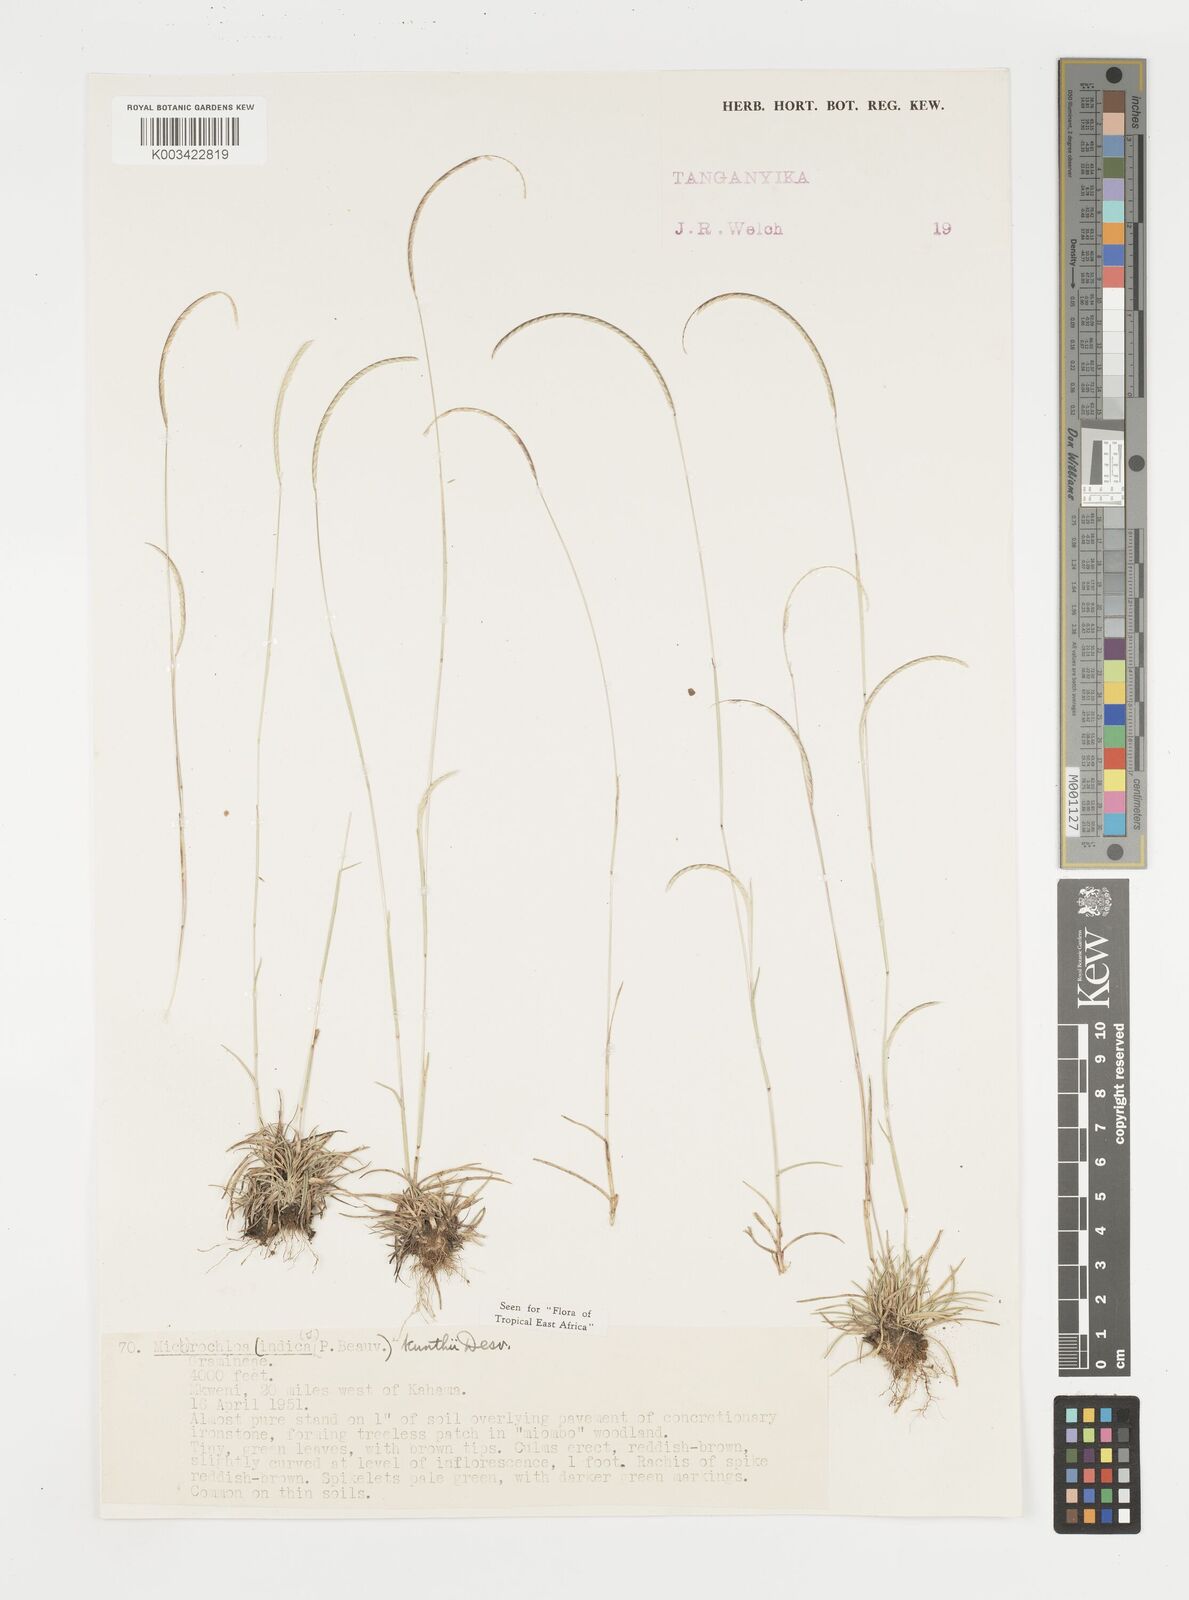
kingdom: Plantae
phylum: Tracheophyta
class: Liliopsida
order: Poales
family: Poaceae
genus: Microchloa
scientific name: Microchloa kunthii
